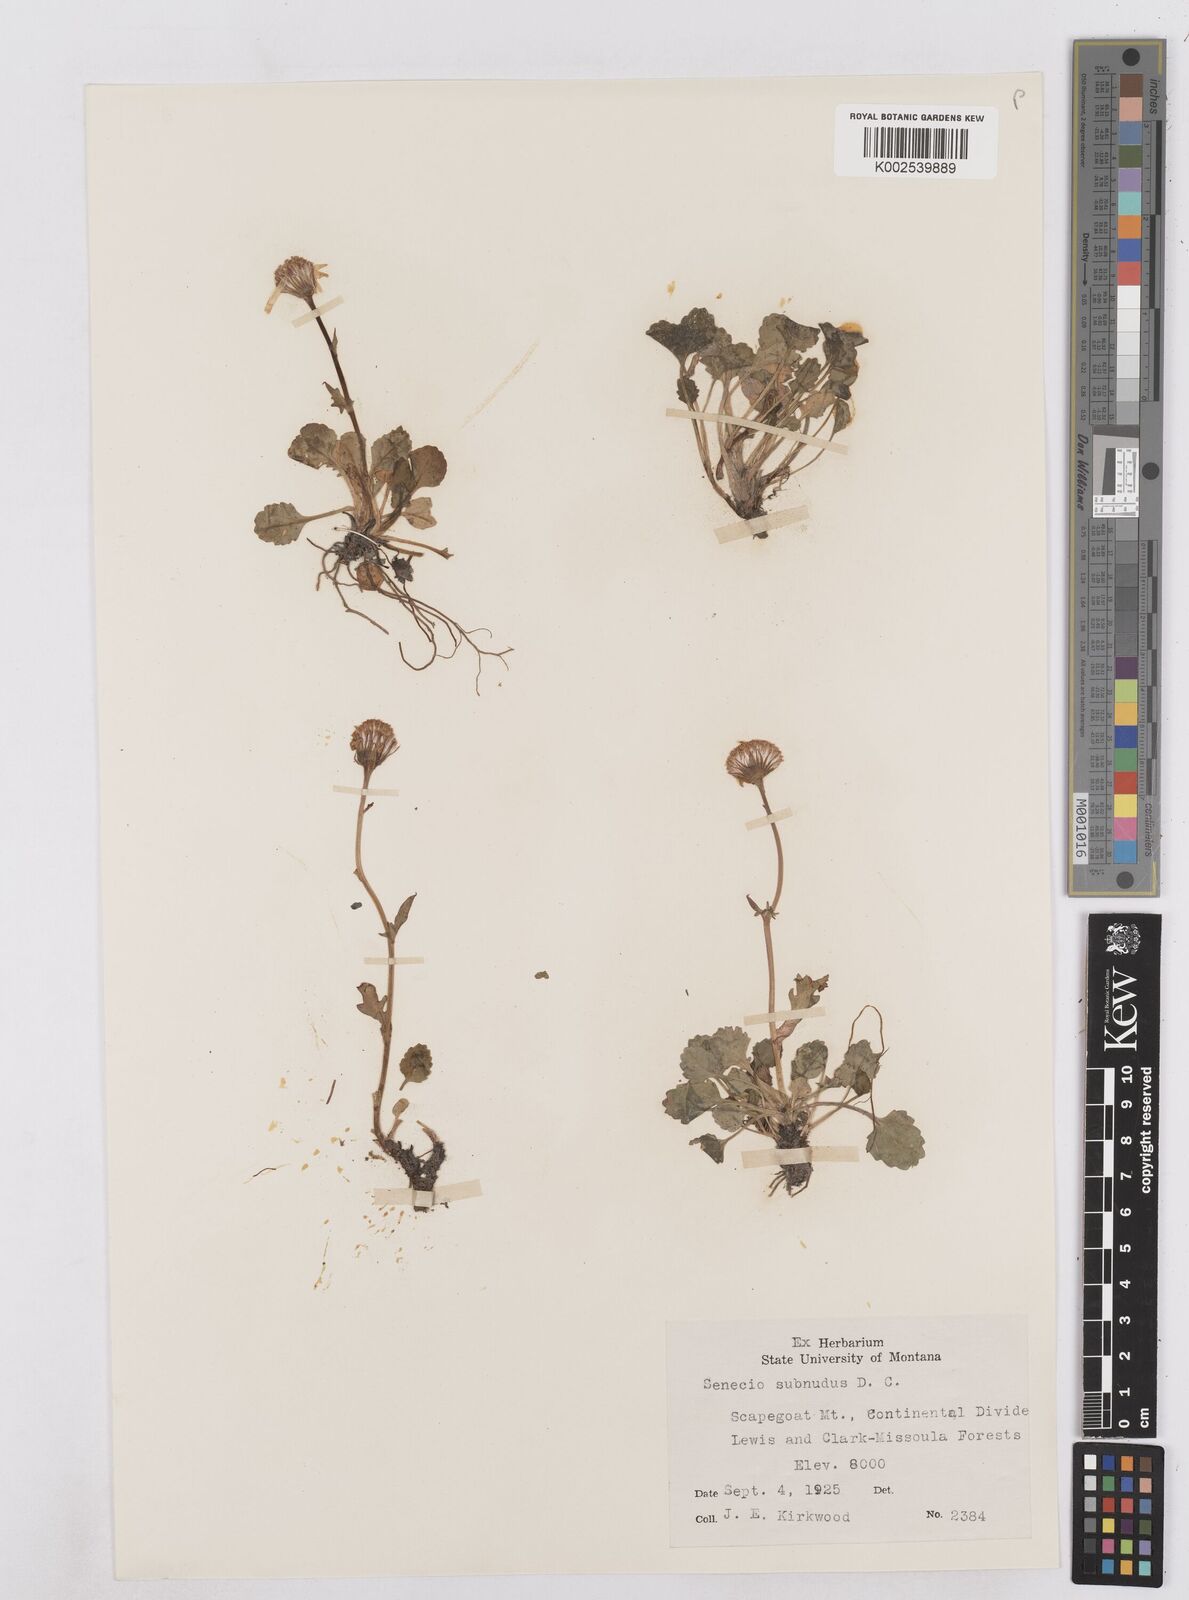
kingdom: Plantae
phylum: Tracheophyta
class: Magnoliopsida
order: Asterales
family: Asteraceae
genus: Packera
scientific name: Packera aurea
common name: Golden groundsel
